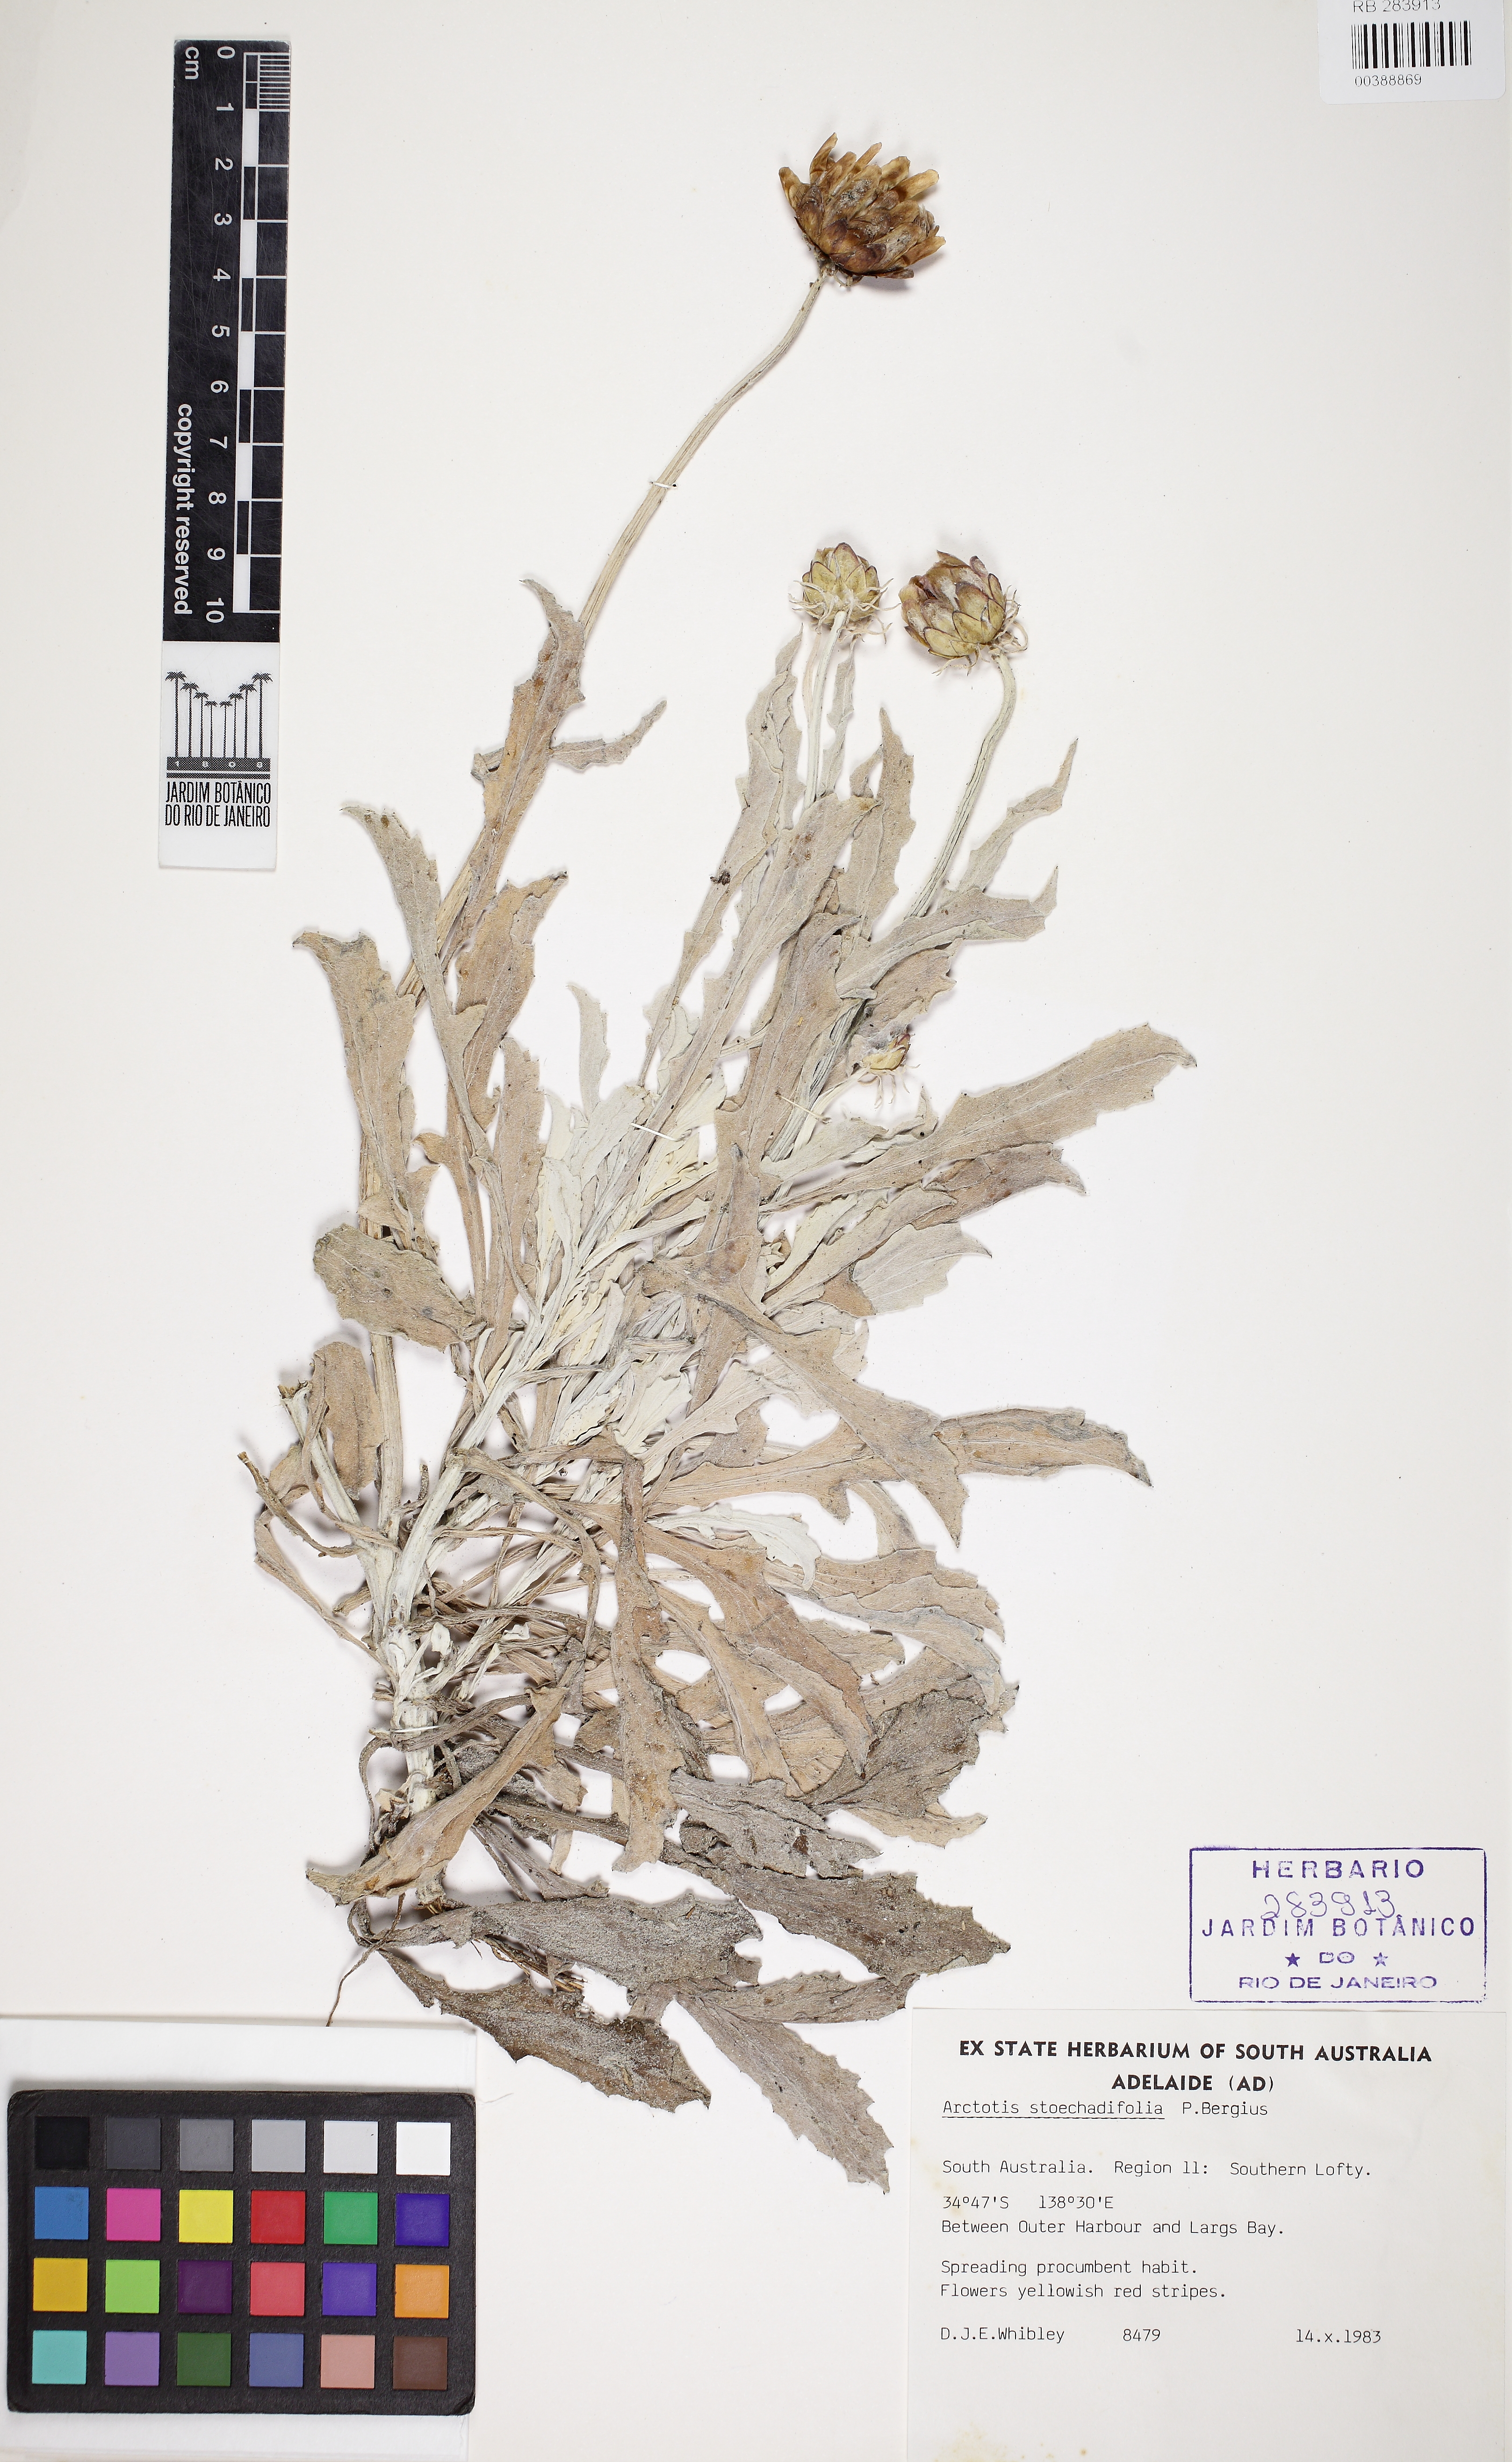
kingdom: Plantae
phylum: Tracheophyta
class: Magnoliopsida
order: Asterales
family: Asteraceae
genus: Arctotis
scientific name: Arctotis stoechadifolia
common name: African daisy
